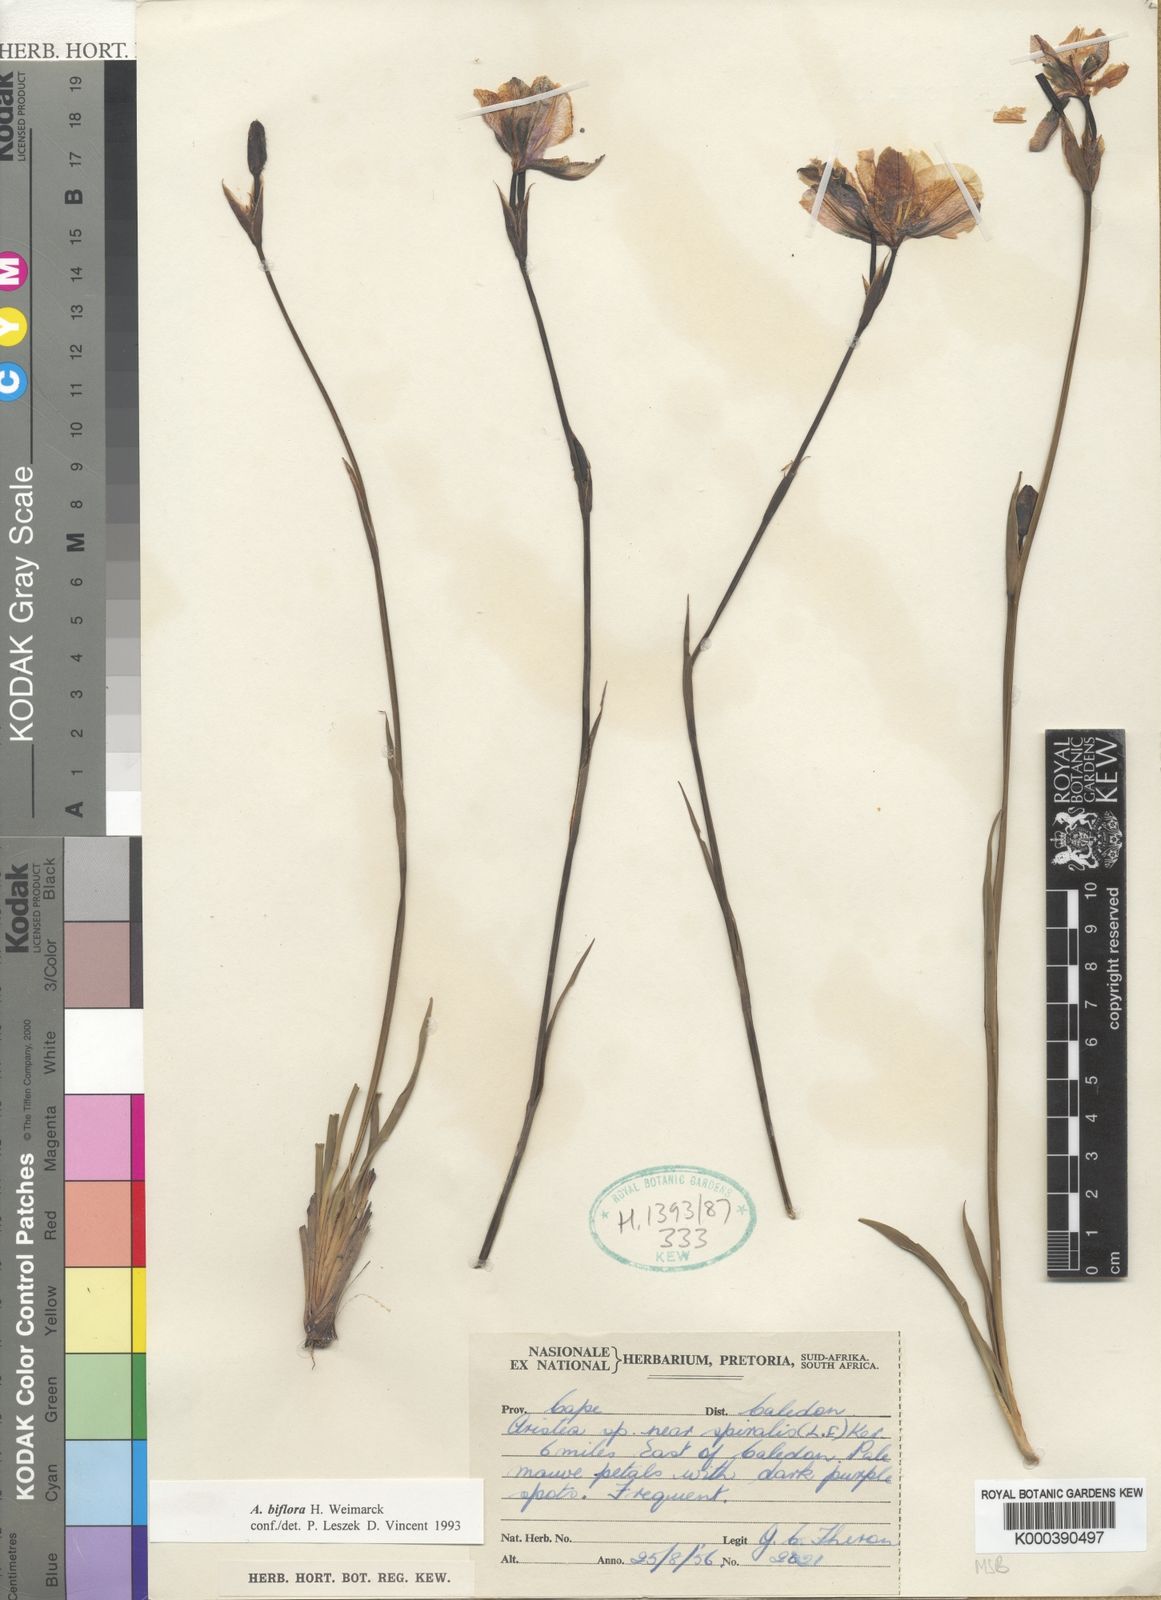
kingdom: Plantae
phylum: Tracheophyta
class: Liliopsida
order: Asparagales
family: Iridaceae
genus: Aristea
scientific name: Aristea biflora
